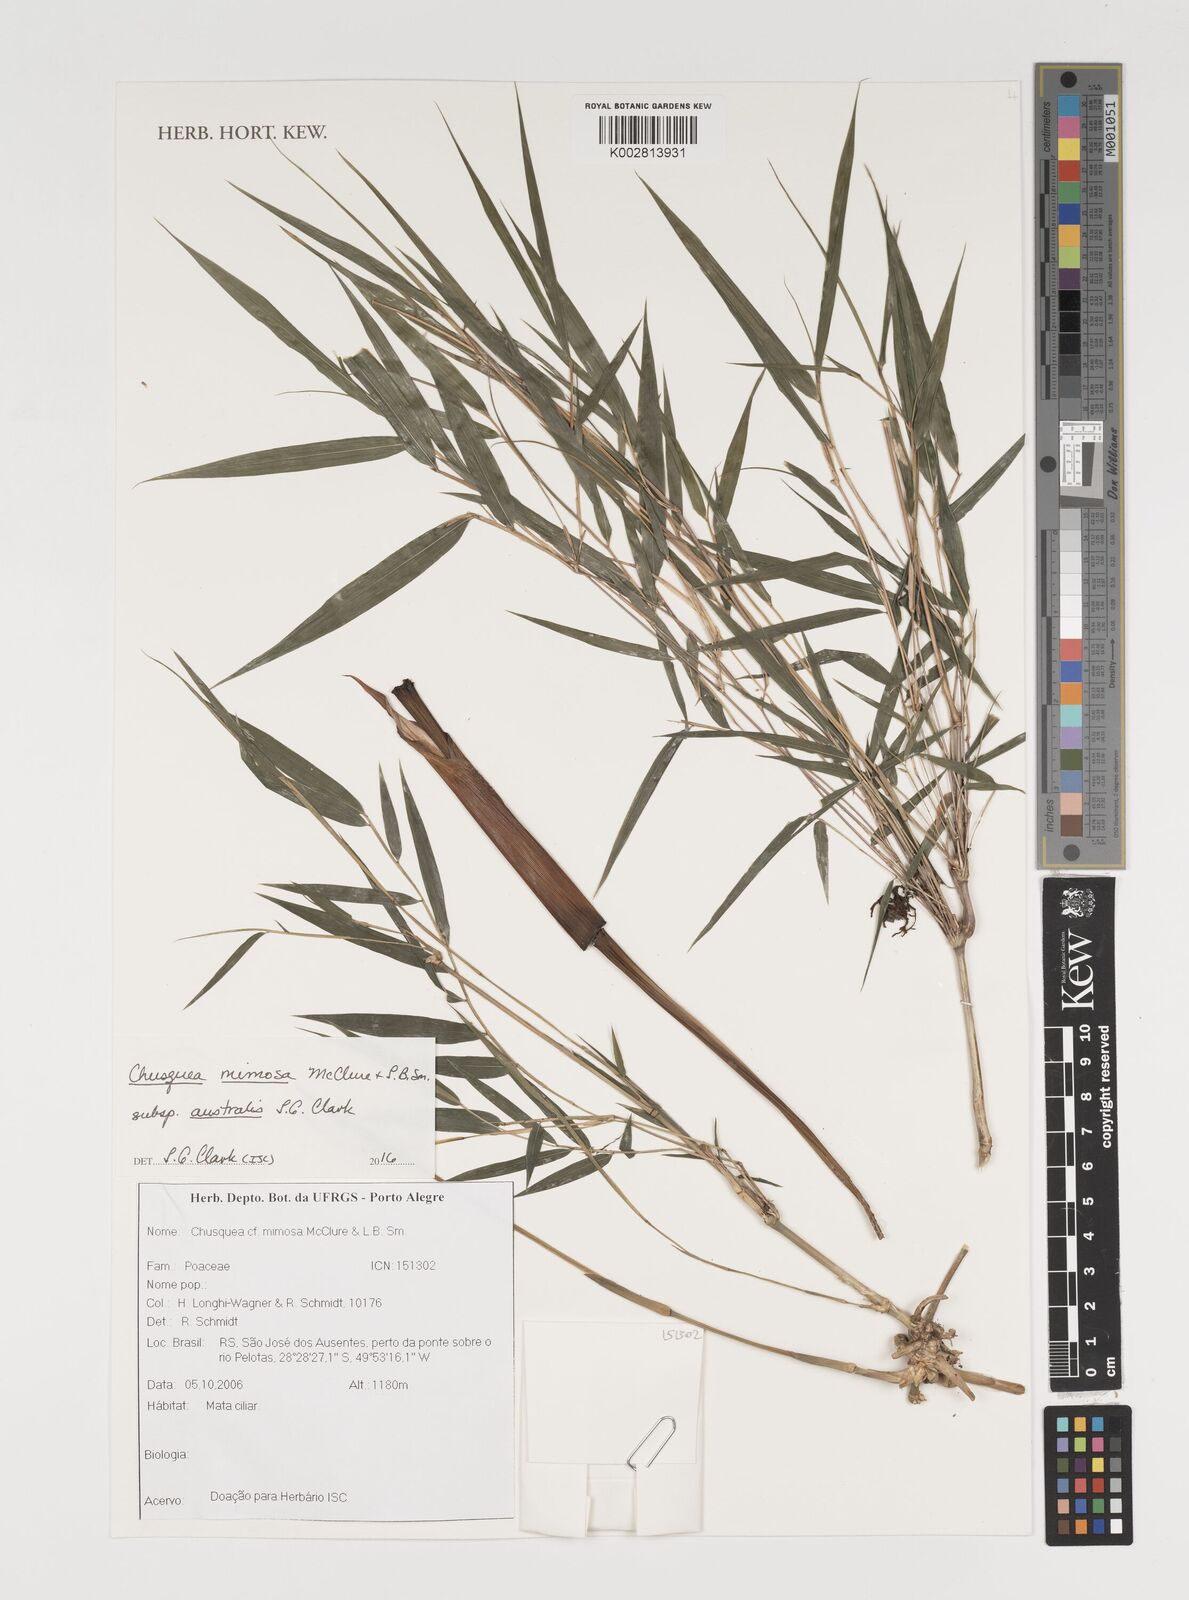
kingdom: Plantae
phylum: Tracheophyta
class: Liliopsida
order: Poales
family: Poaceae
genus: Chusquea
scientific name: Chusquea mimosa
